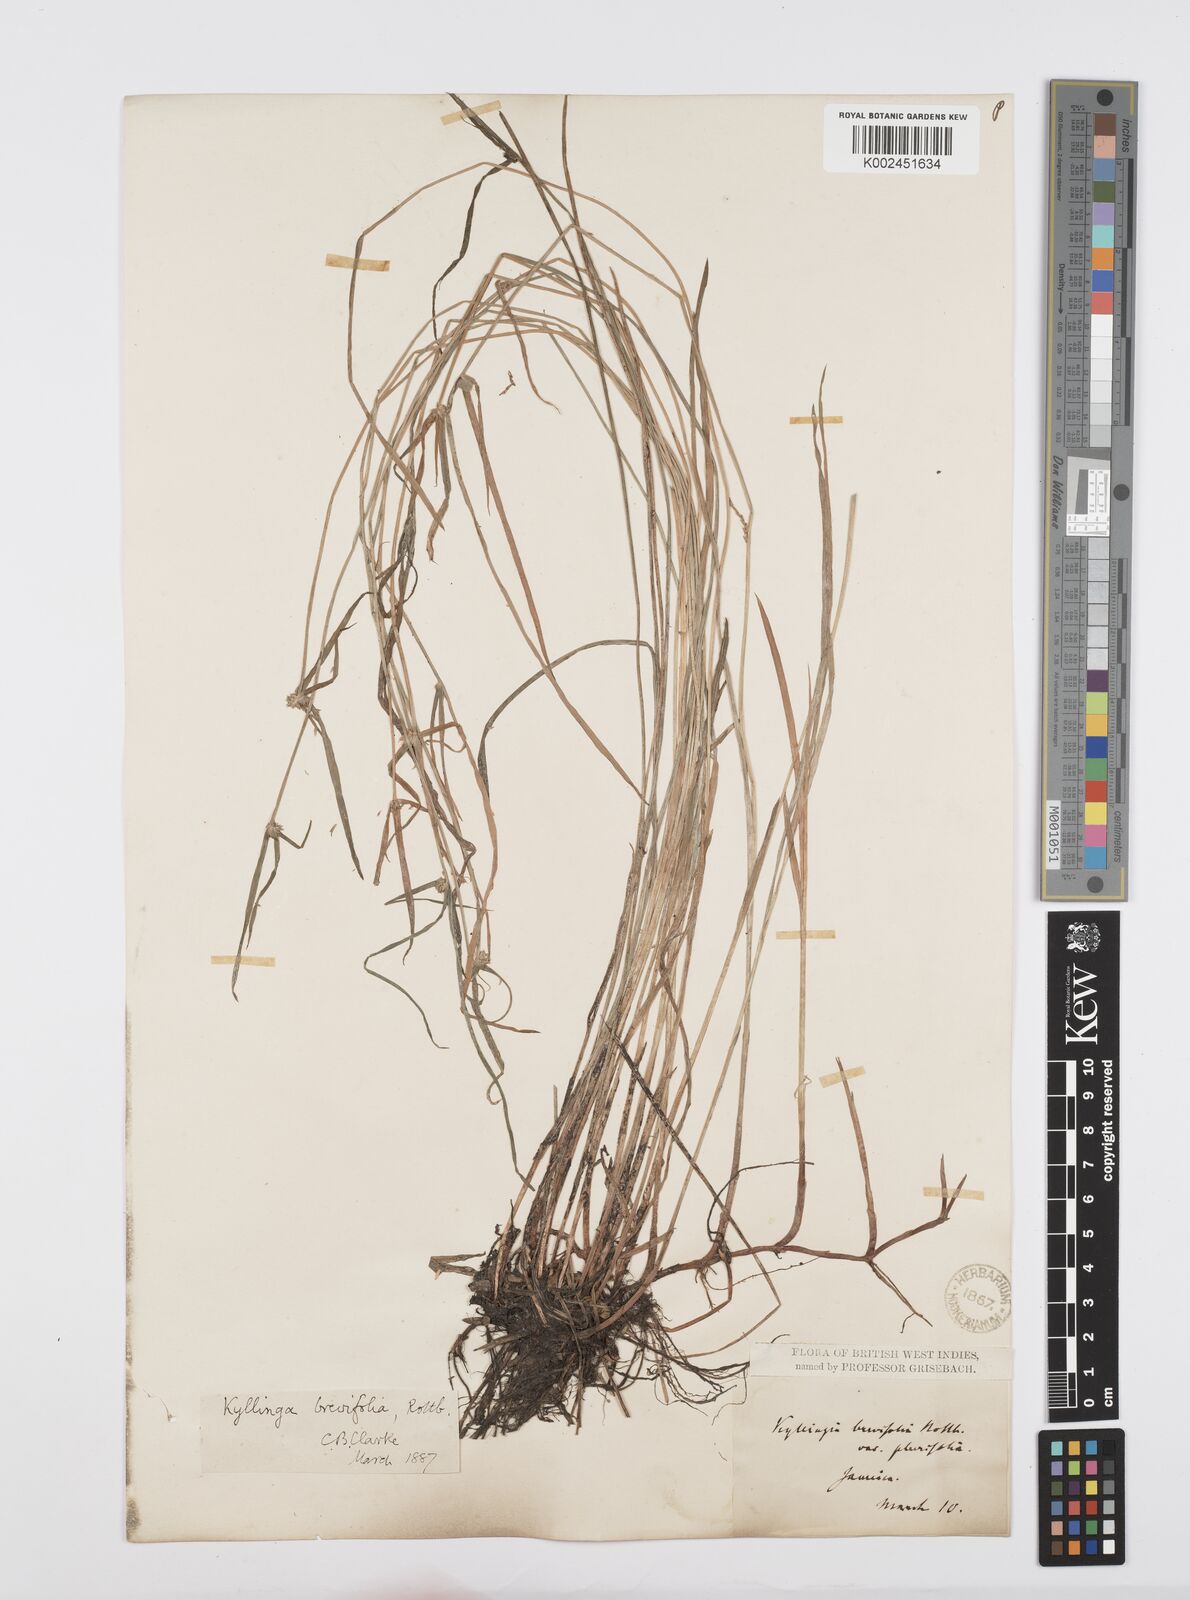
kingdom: Plantae
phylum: Tracheophyta
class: Liliopsida
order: Poales
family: Cyperaceae
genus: Cyperus
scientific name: Cyperus brevifolius
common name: Globe kyllinga
